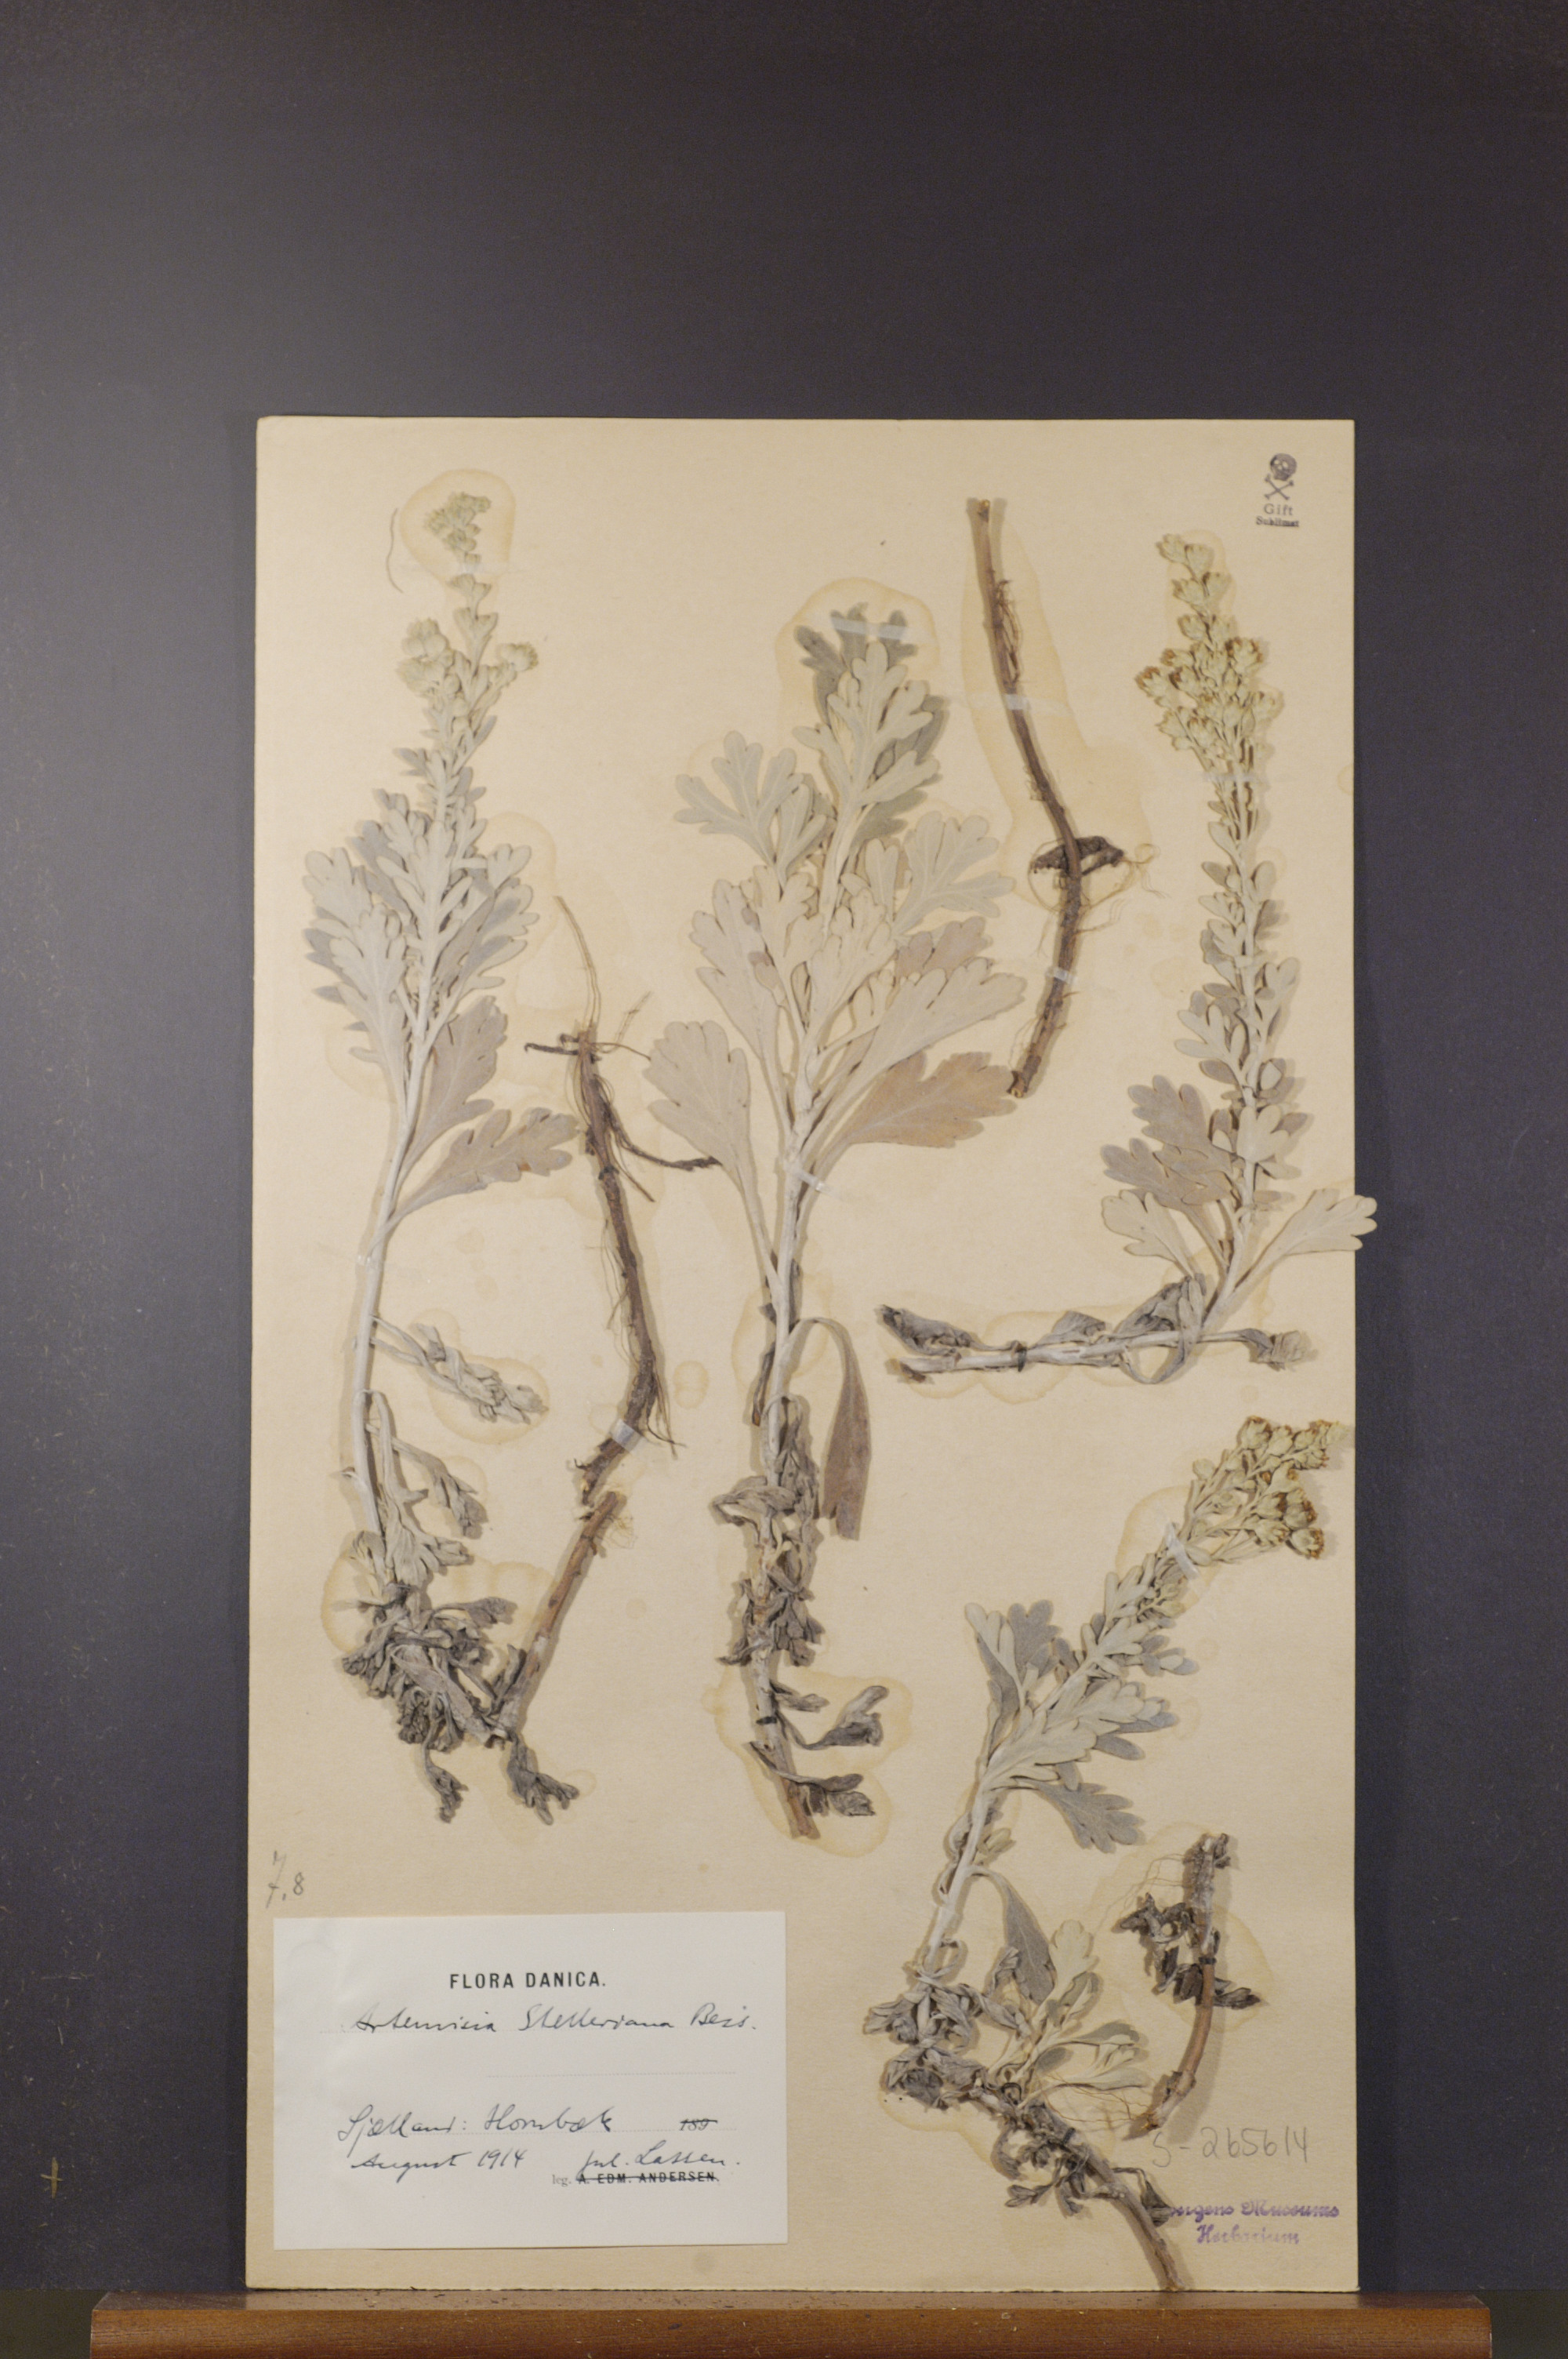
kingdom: Plantae
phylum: Tracheophyta
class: Magnoliopsida
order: Asterales
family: Asteraceae
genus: Artemisia
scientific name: Artemisia stelleriana
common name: Beach wormwood
